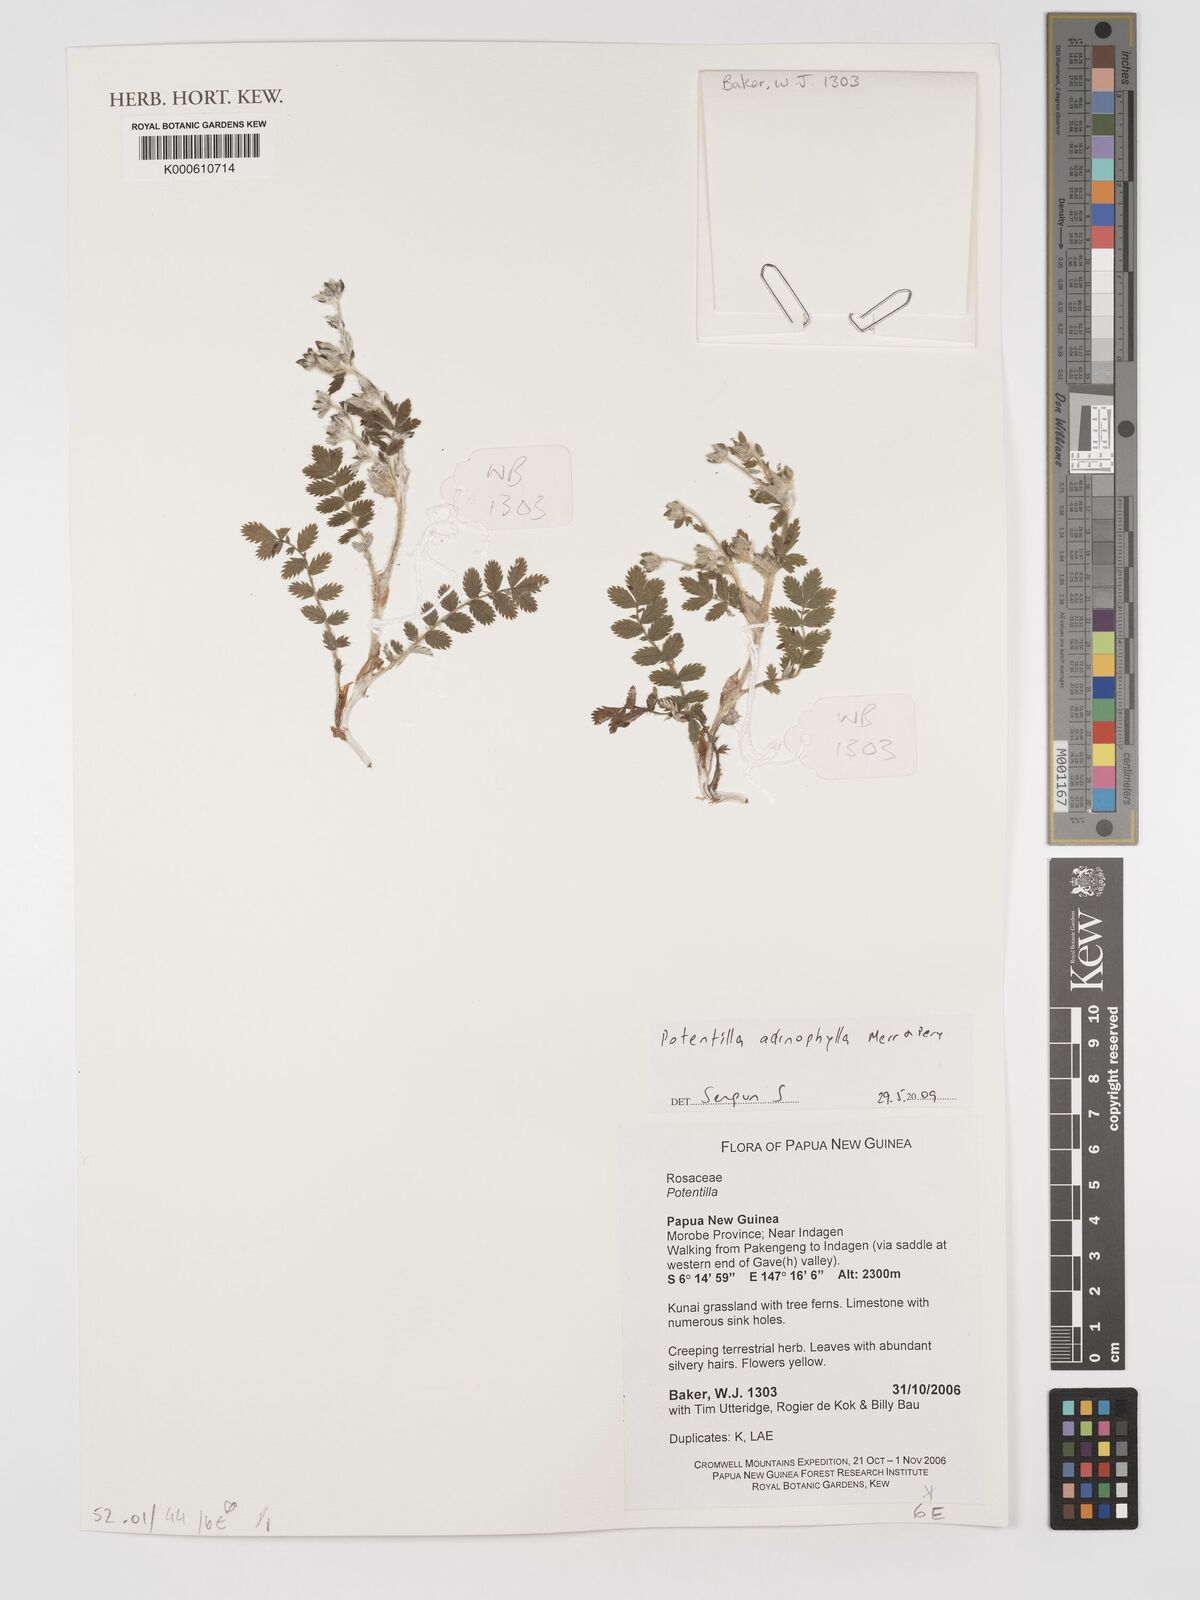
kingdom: Plantae
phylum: Tracheophyta
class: Magnoliopsida
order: Rosales
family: Rosaceae
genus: Argentina
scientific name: Argentina adinophylla
